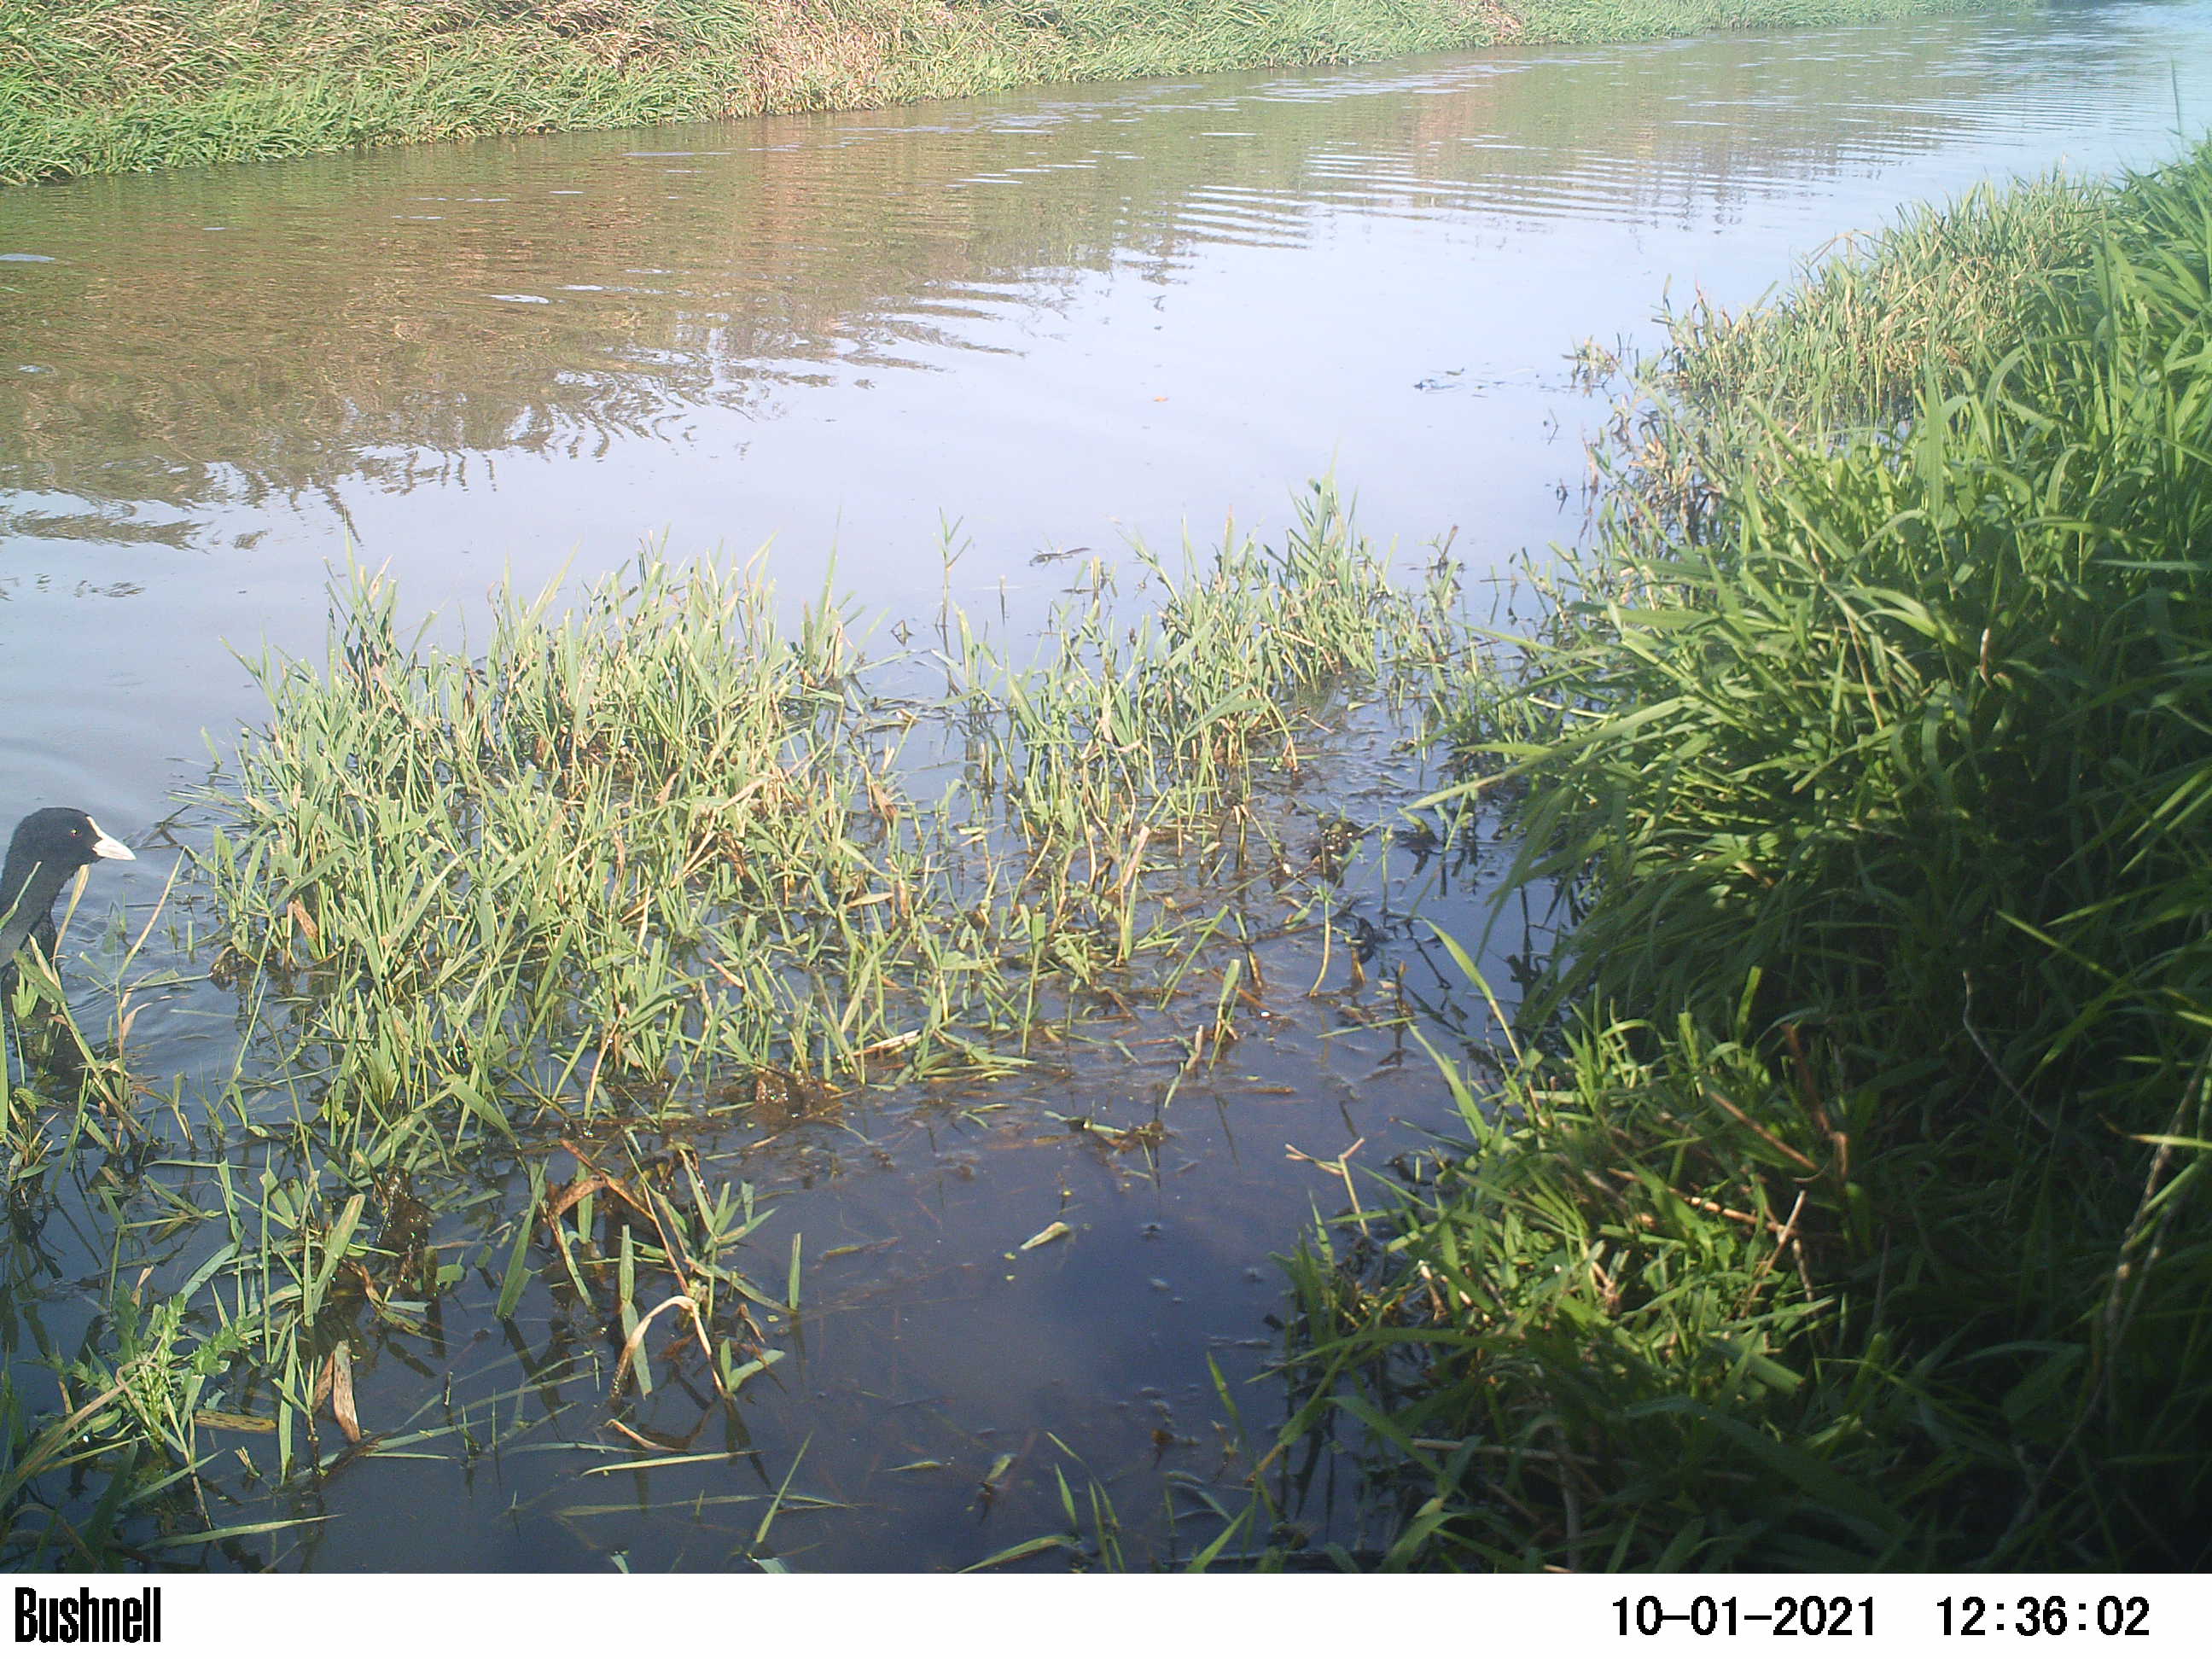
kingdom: Animalia
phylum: Chordata
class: Aves
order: Gruiformes
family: Rallidae
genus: Fulica
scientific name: Fulica atra
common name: Eurasian coot
